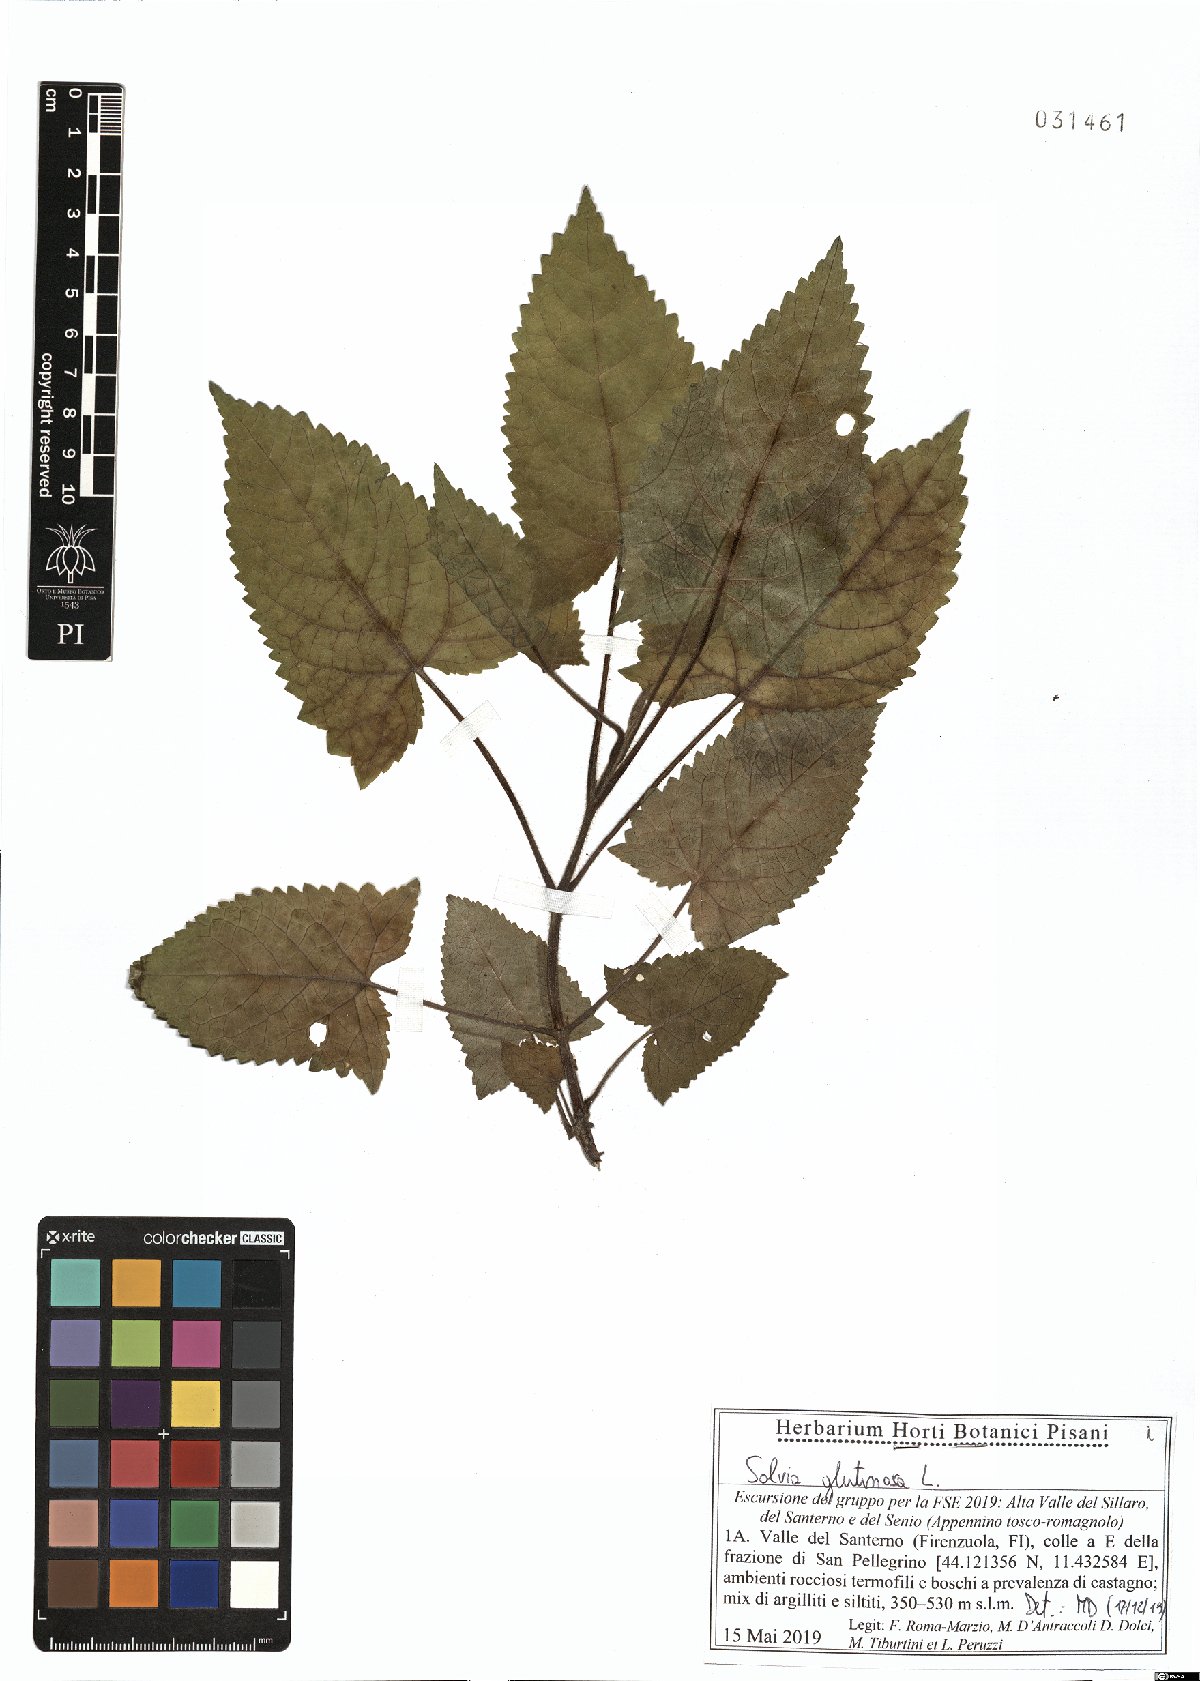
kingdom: Plantae
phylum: Tracheophyta
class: Magnoliopsida
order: Lamiales
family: Lamiaceae
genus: Salvia
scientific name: Salvia glutinosa
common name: Sticky clary
